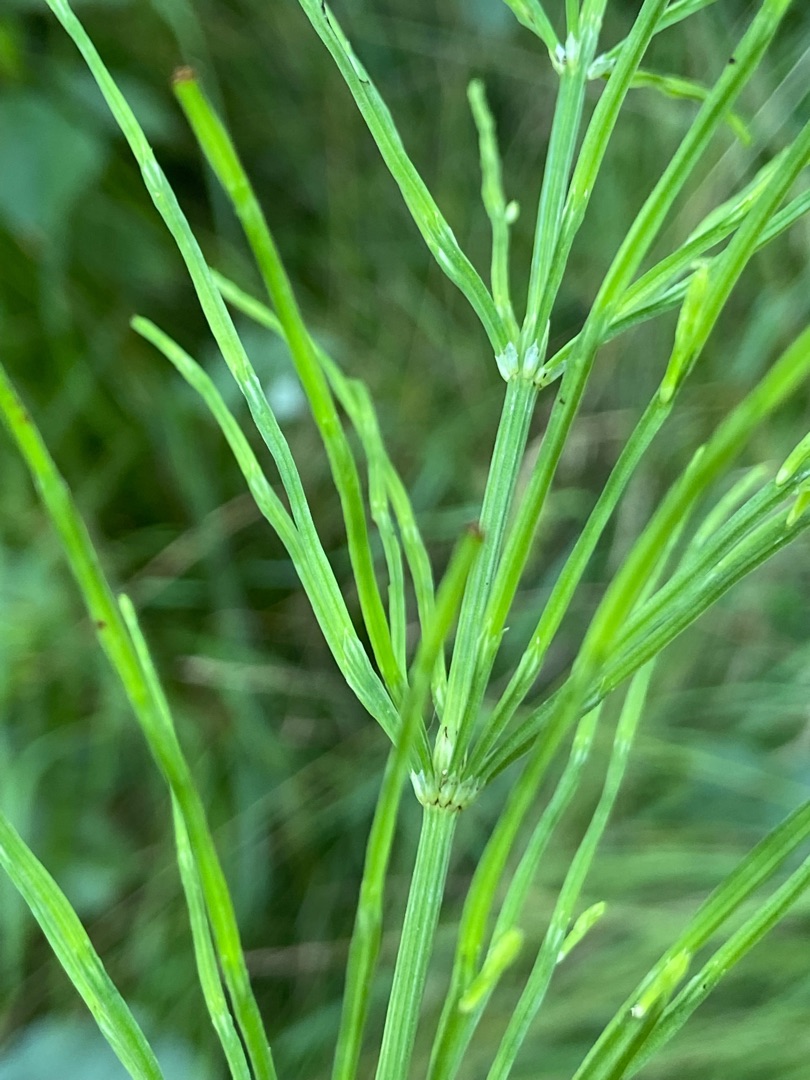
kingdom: Plantae
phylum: Tracheophyta
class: Polypodiopsida
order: Equisetales
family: Equisetaceae
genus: Equisetum
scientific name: Equisetum arvense
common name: Ager-padderok
